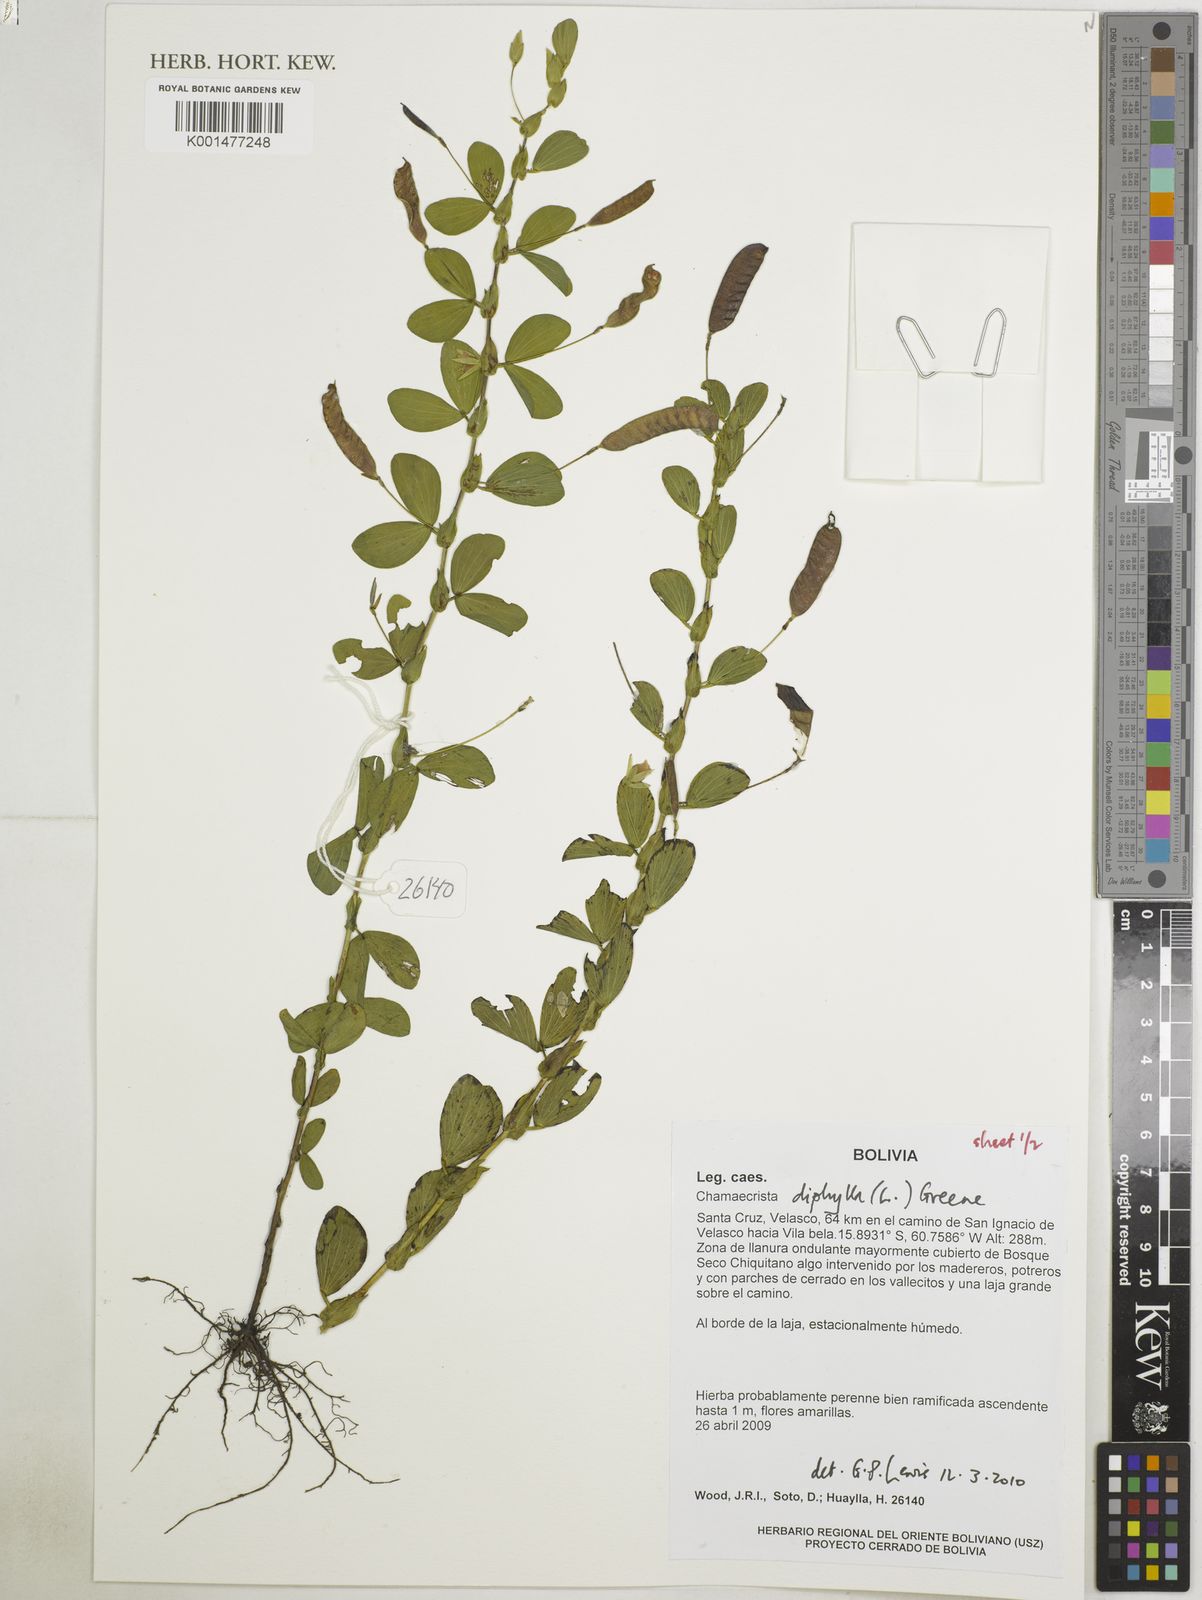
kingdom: Plantae
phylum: Tracheophyta
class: Magnoliopsida
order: Fabales
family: Fabaceae
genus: Chamaecrista
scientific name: Chamaecrista diphylla
